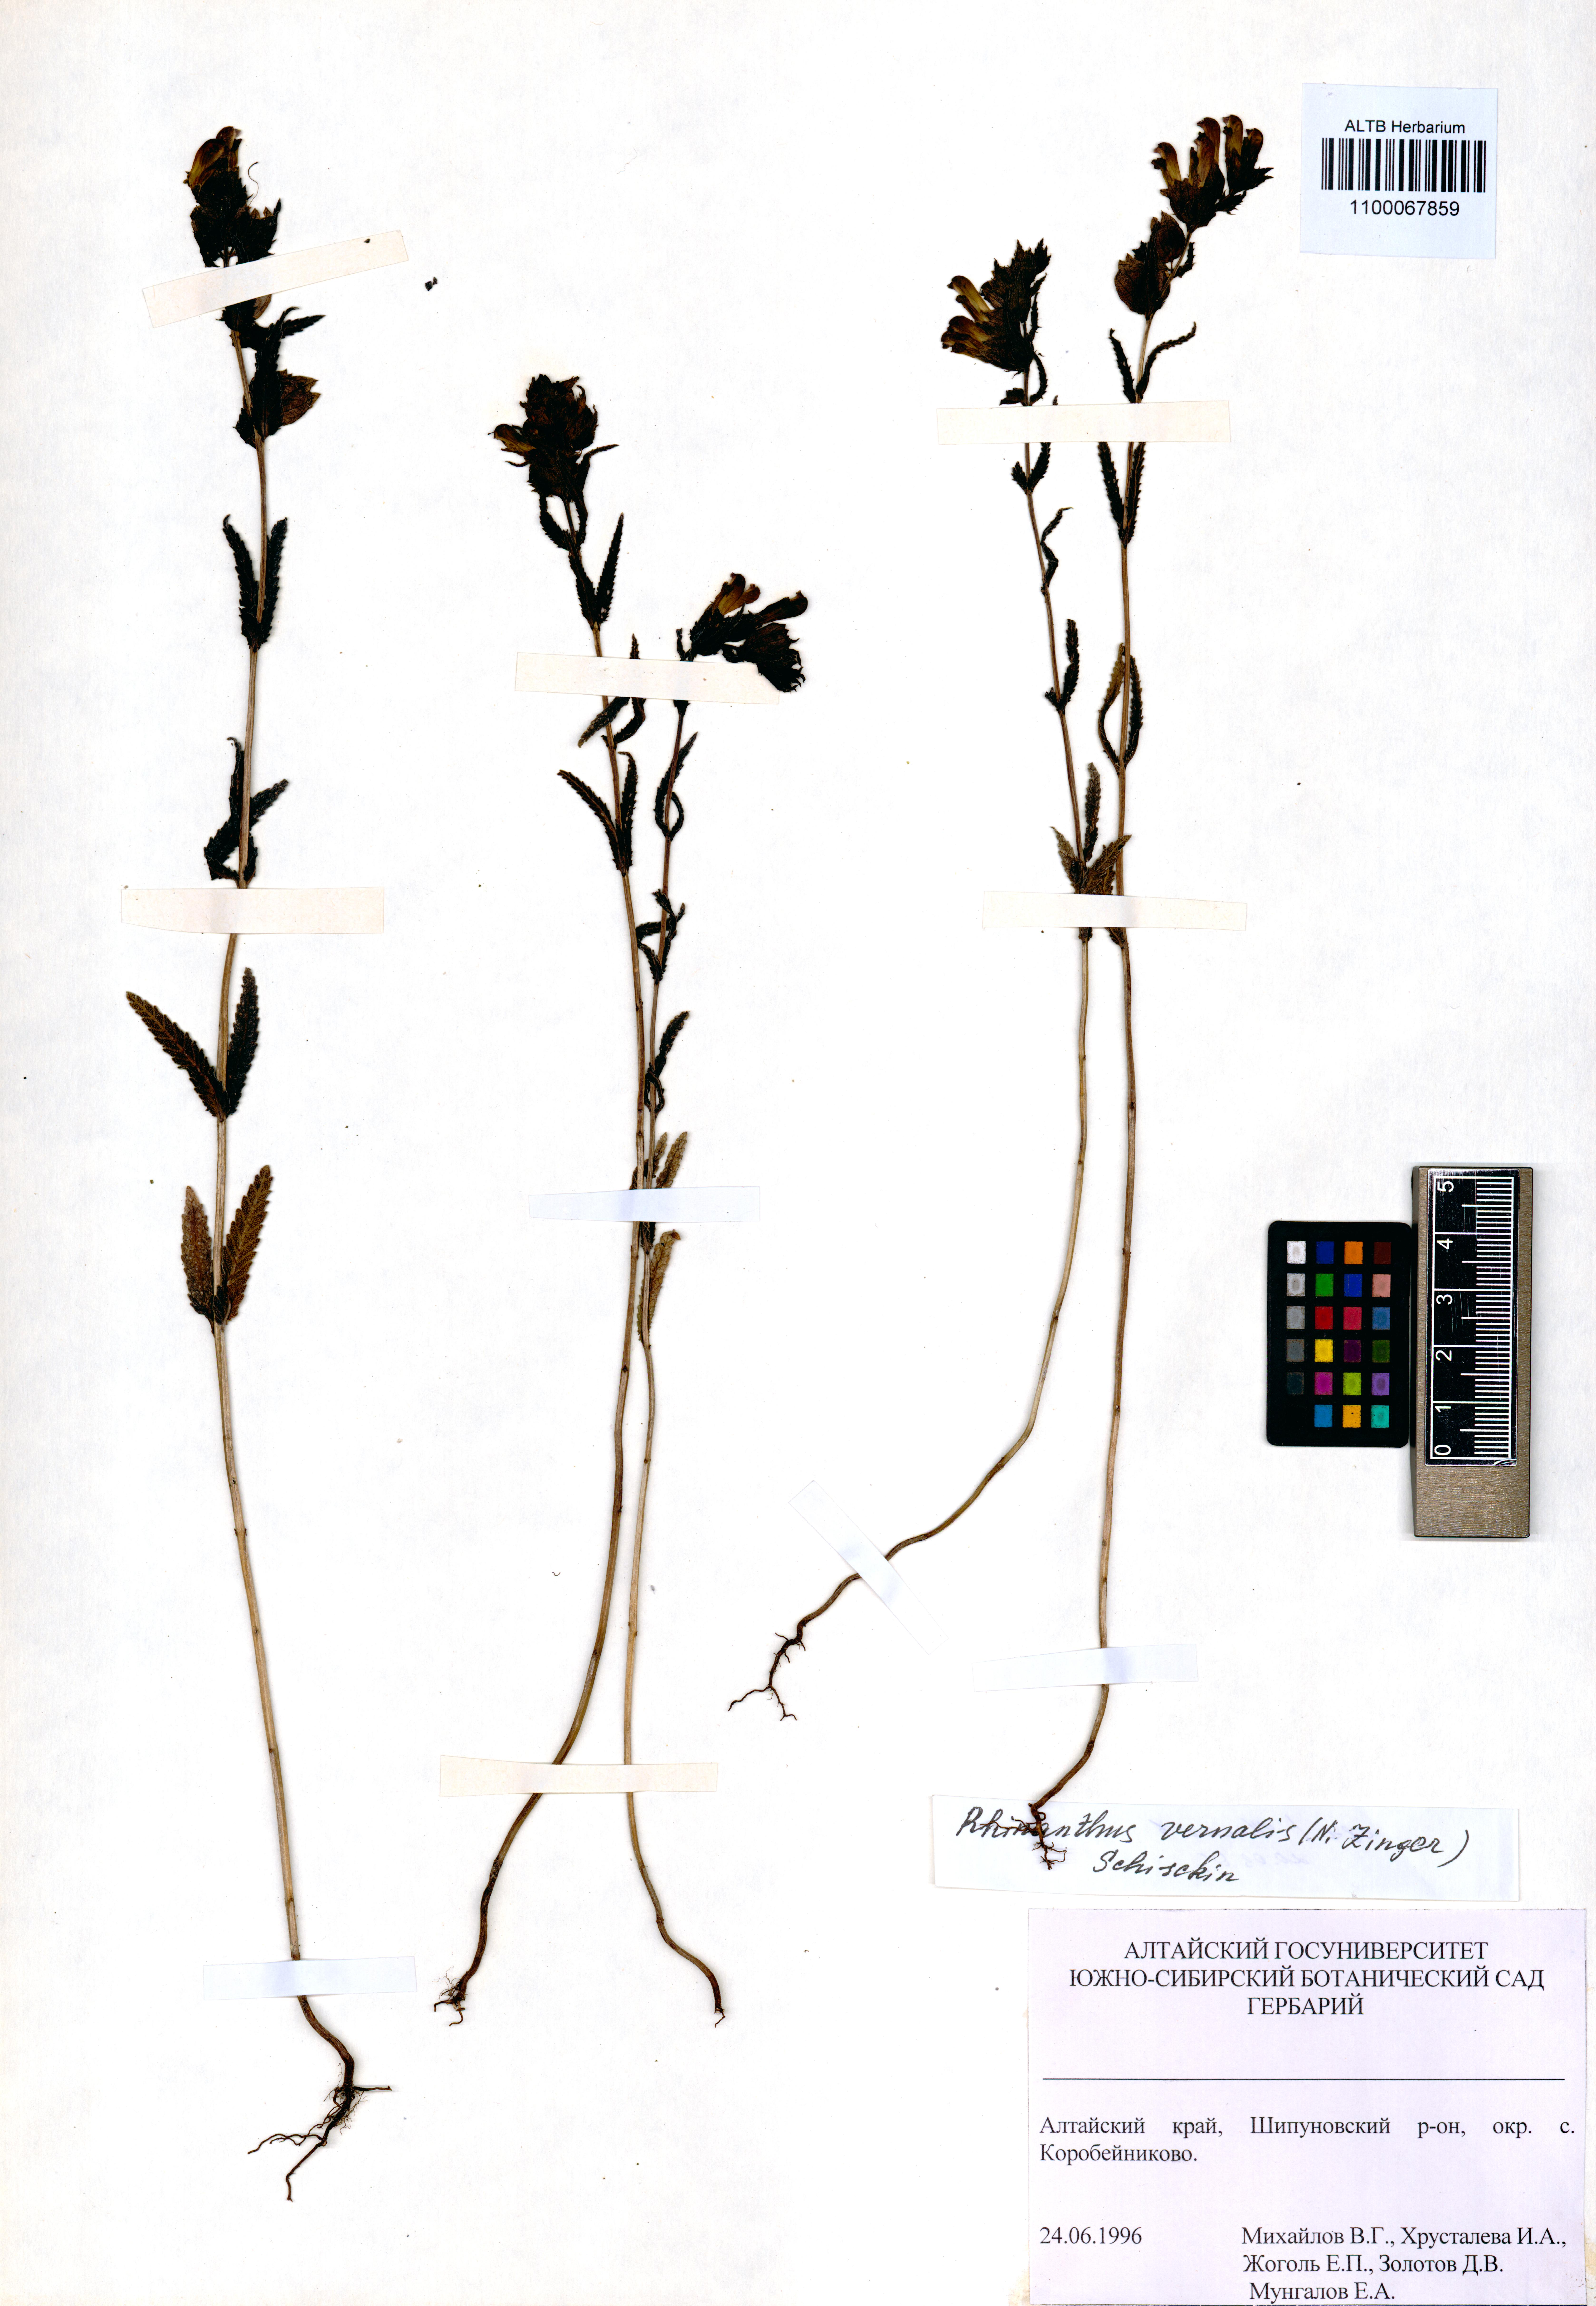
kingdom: Plantae
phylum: Tracheophyta
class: Magnoliopsida
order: Lamiales
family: Orobanchaceae
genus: Rhinanthus
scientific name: Rhinanthus serotinus
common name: Late-flowering yellow rattle
